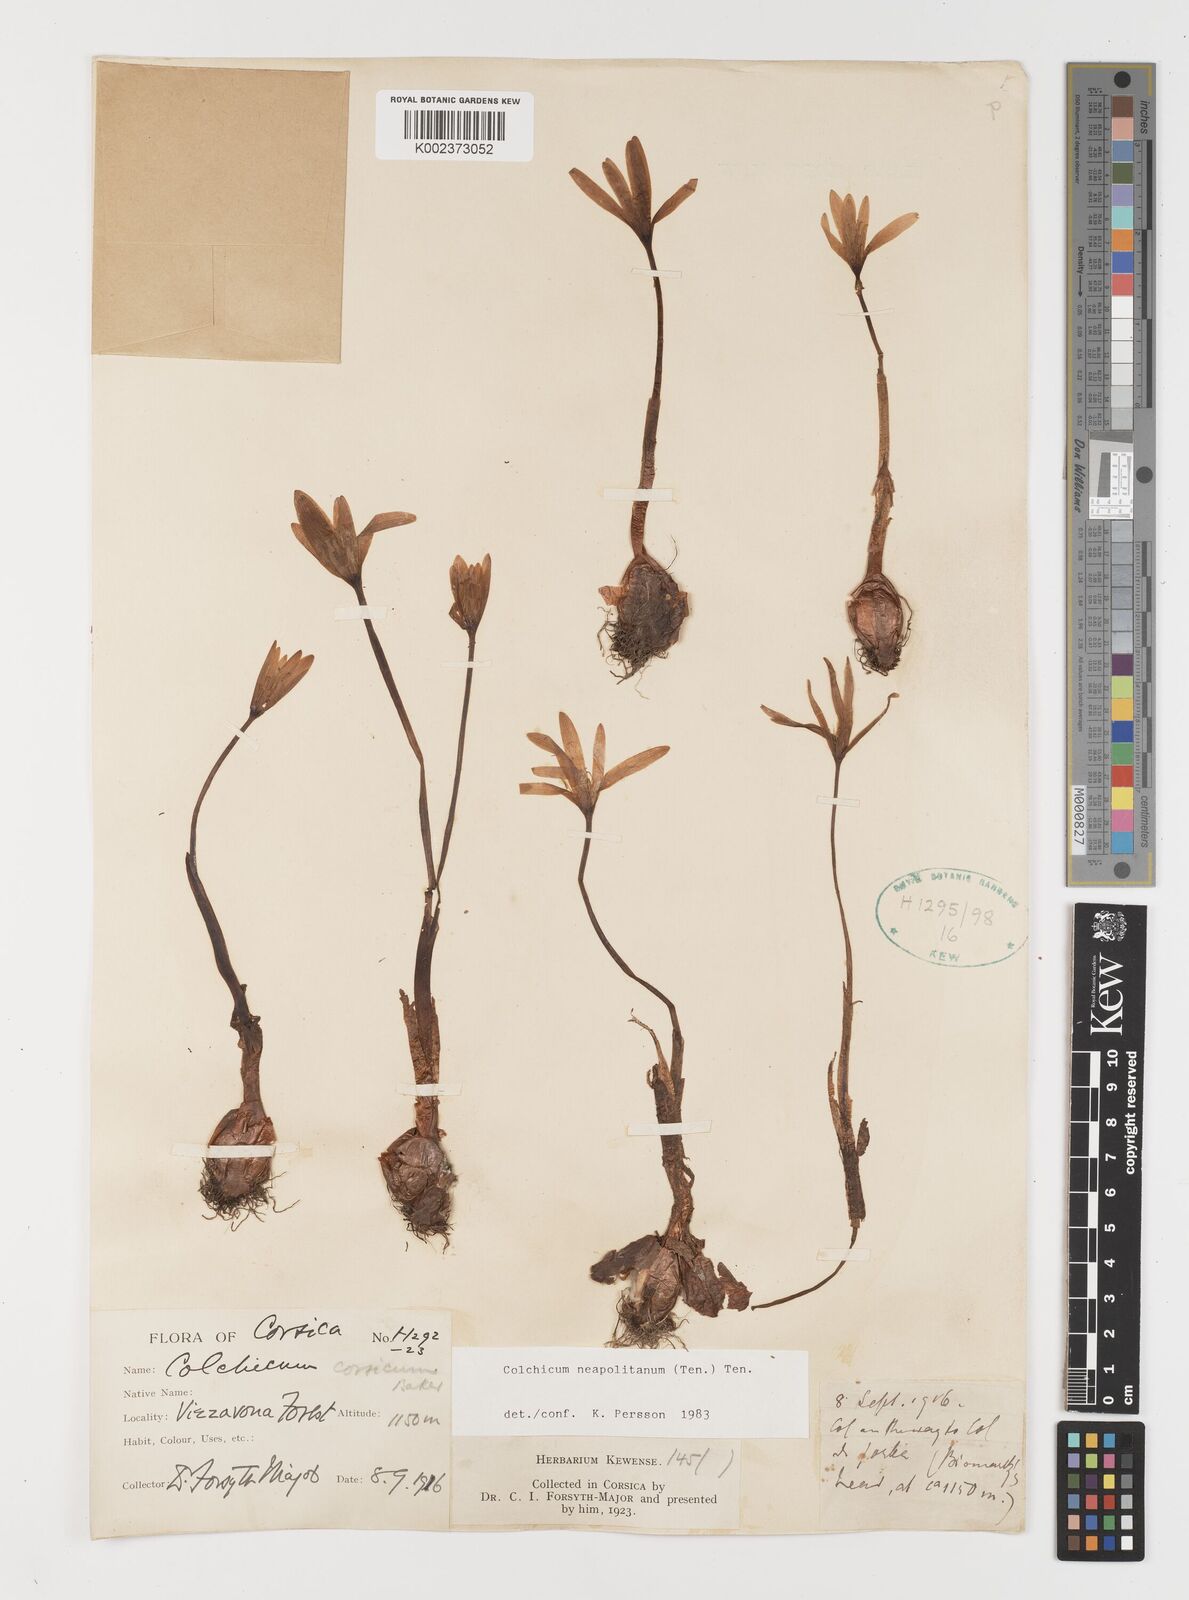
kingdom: Plantae
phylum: Tracheophyta
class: Liliopsida
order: Liliales
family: Colchicaceae
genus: Colchicum
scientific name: Colchicum neapolitanum
